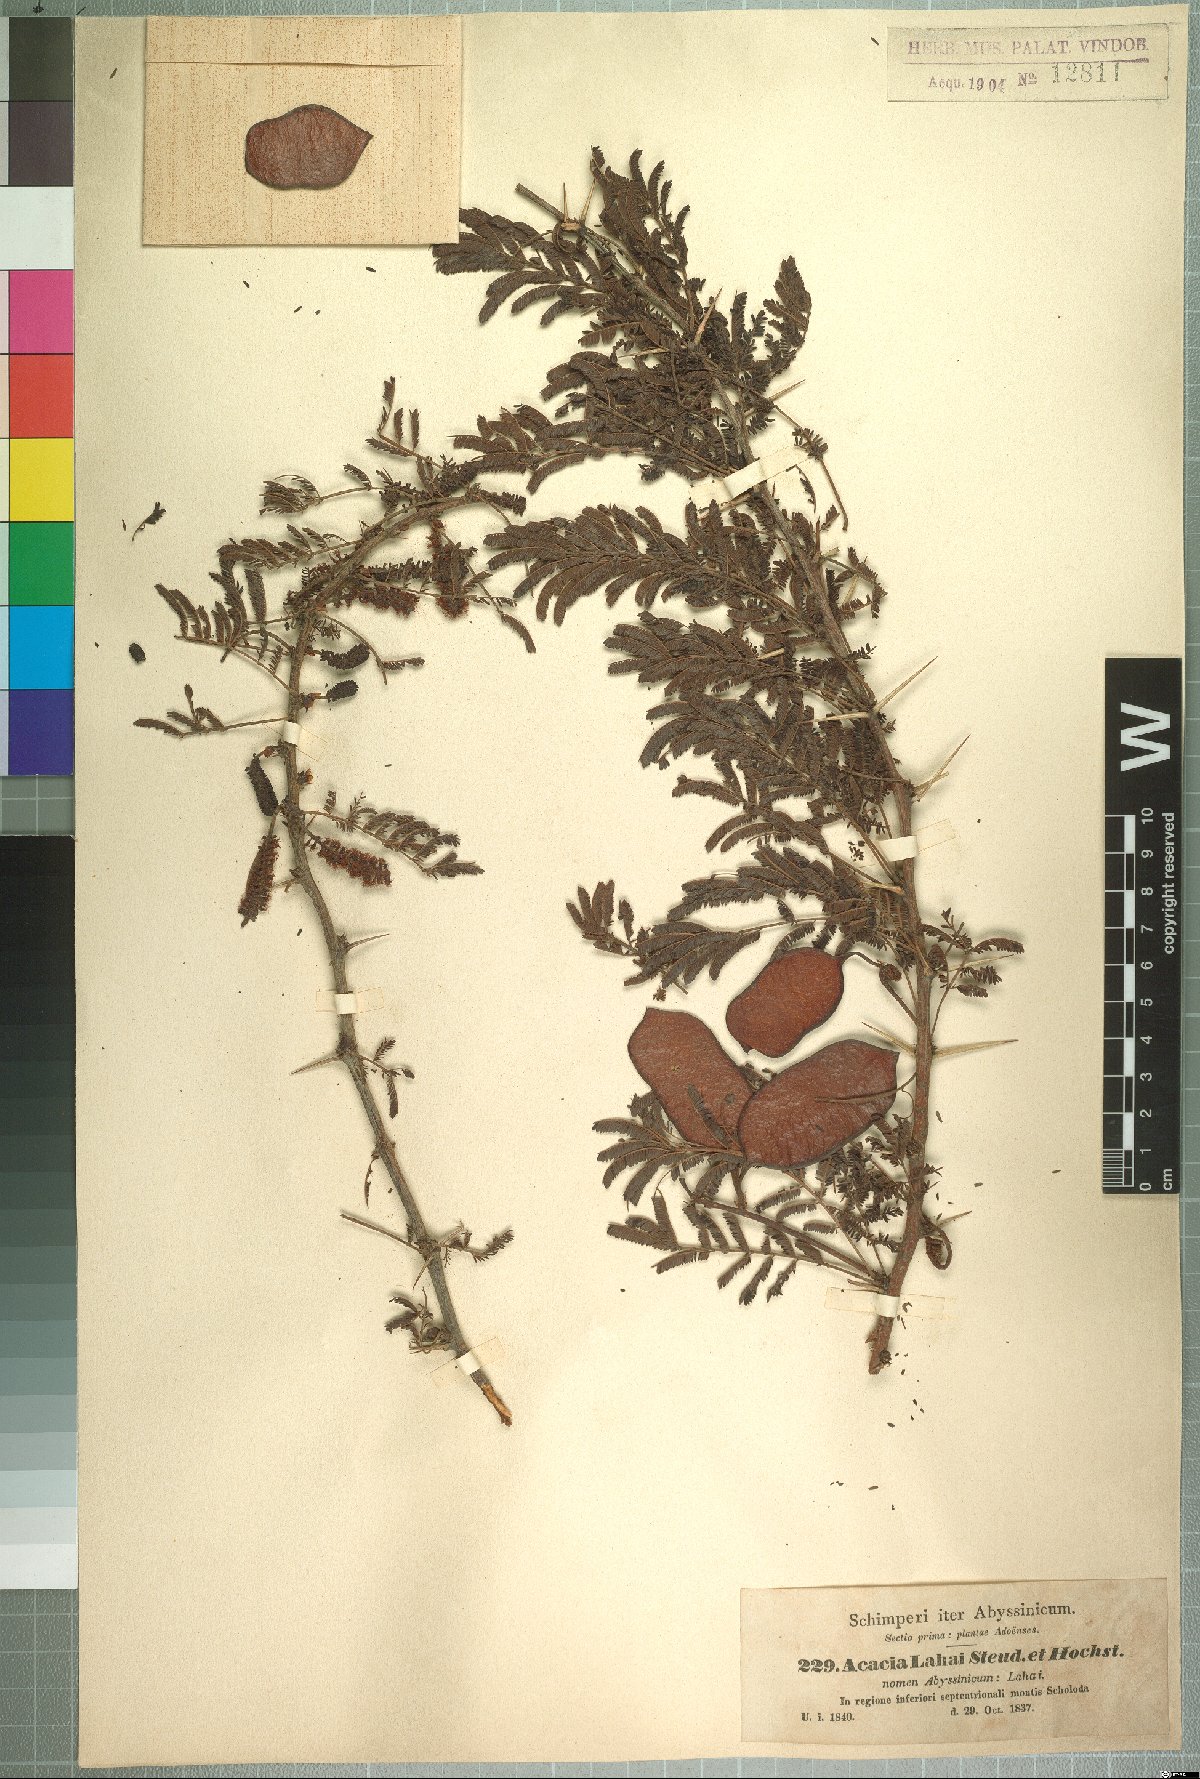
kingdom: Plantae
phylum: Tracheophyta
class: Magnoliopsida
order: Fabales
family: Fabaceae
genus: Vachellia
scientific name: Vachellia lahai
